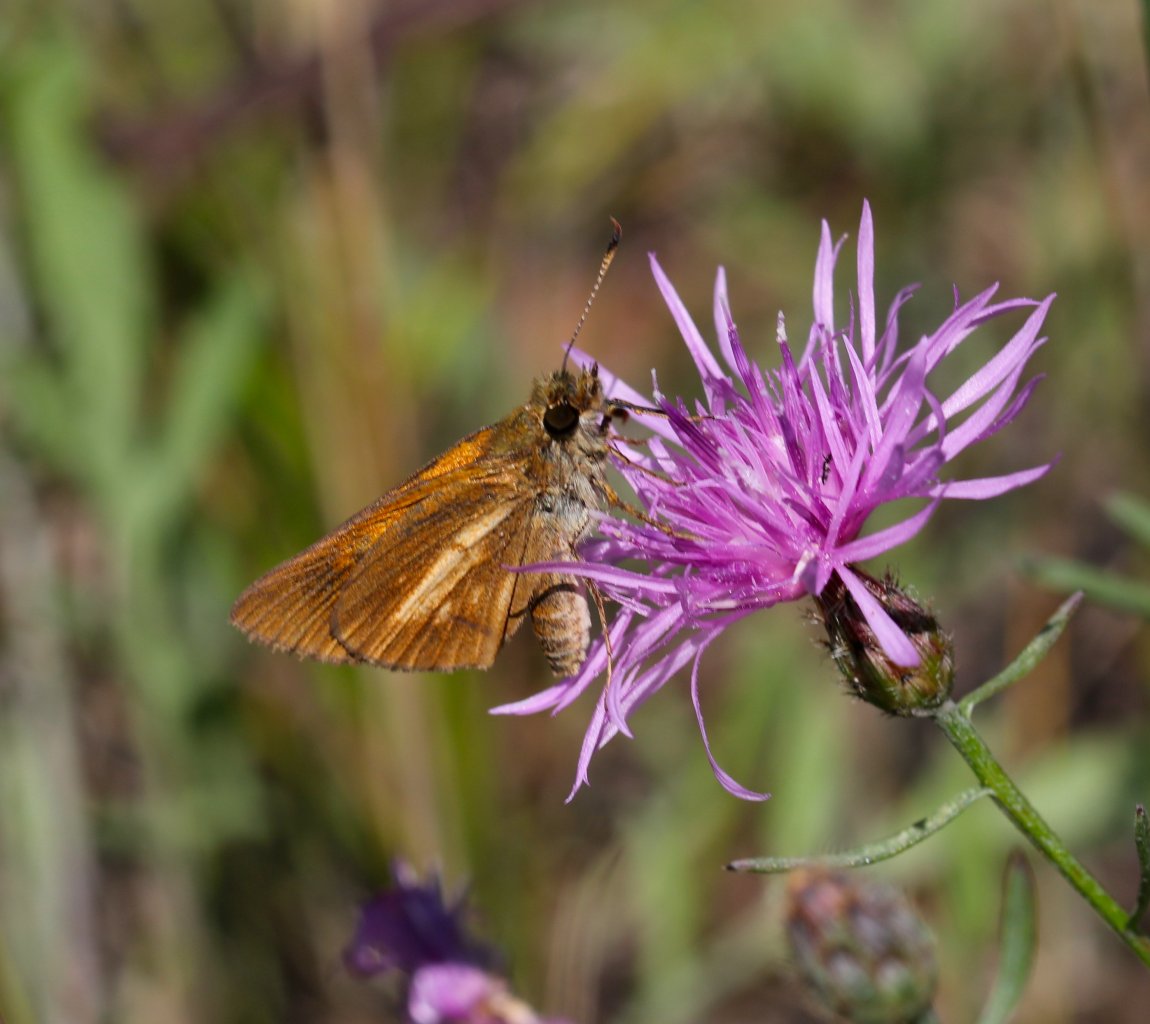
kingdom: Animalia
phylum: Arthropoda
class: Insecta
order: Lepidoptera
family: Hesperiidae
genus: Poanes
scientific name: Poanes viator
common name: Broad-winged Skipper
